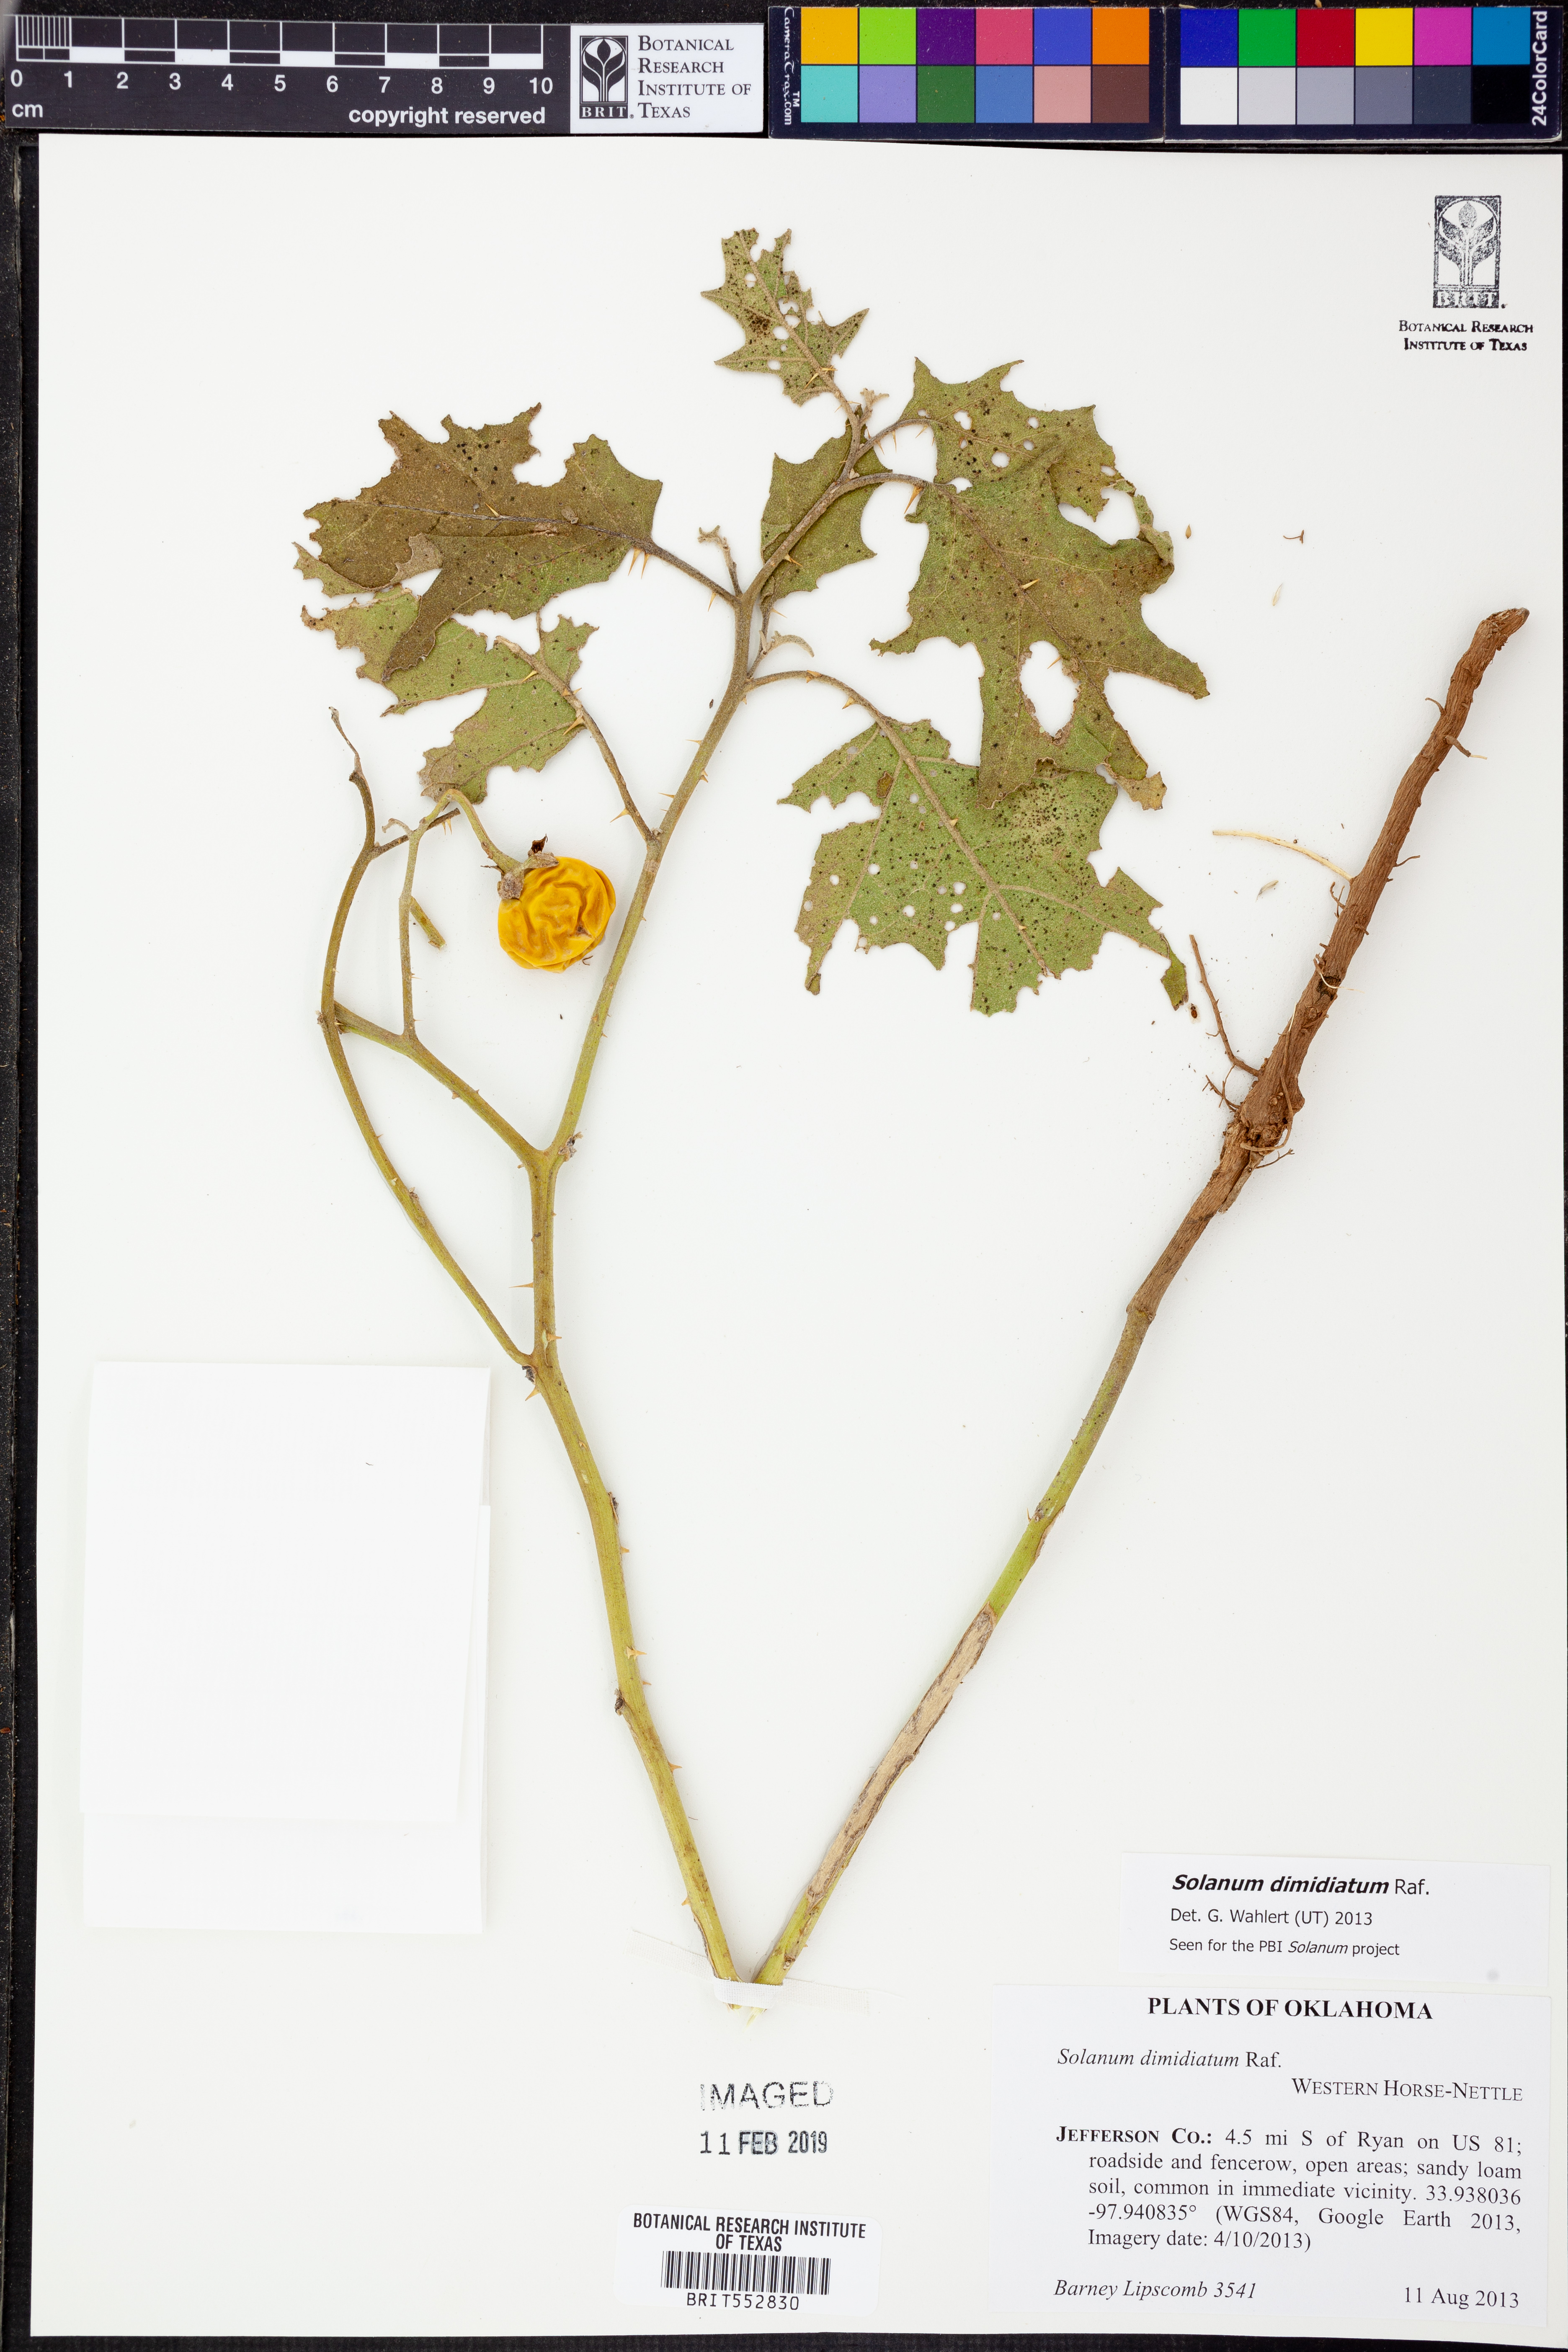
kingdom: Plantae
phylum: Tracheophyta
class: Magnoliopsida
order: Solanales
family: Solanaceae
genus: Solanum
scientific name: Solanum dimidiatum
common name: Carolina horse-nettle
